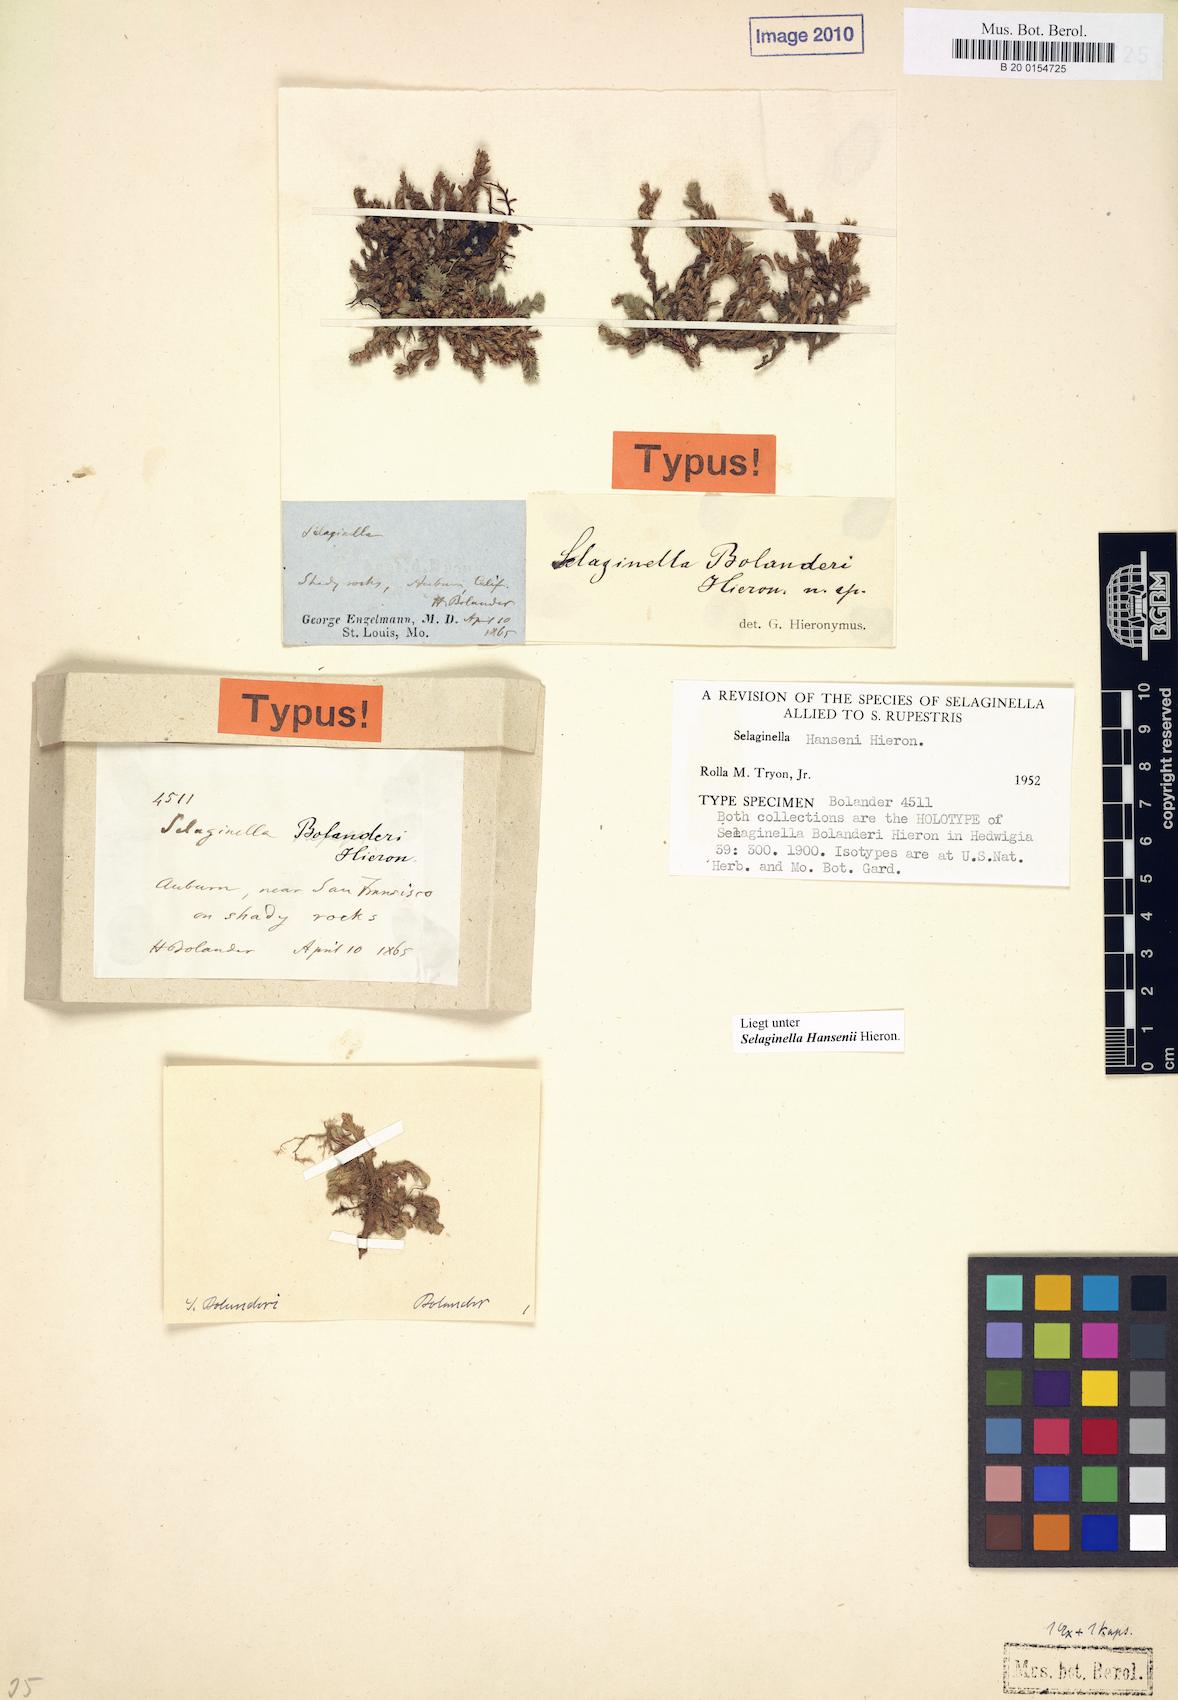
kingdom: Plantae
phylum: Tracheophyta
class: Lycopodiopsida
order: Selaginellales
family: Selaginellaceae
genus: Selaginella
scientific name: Selaginella hansenii
